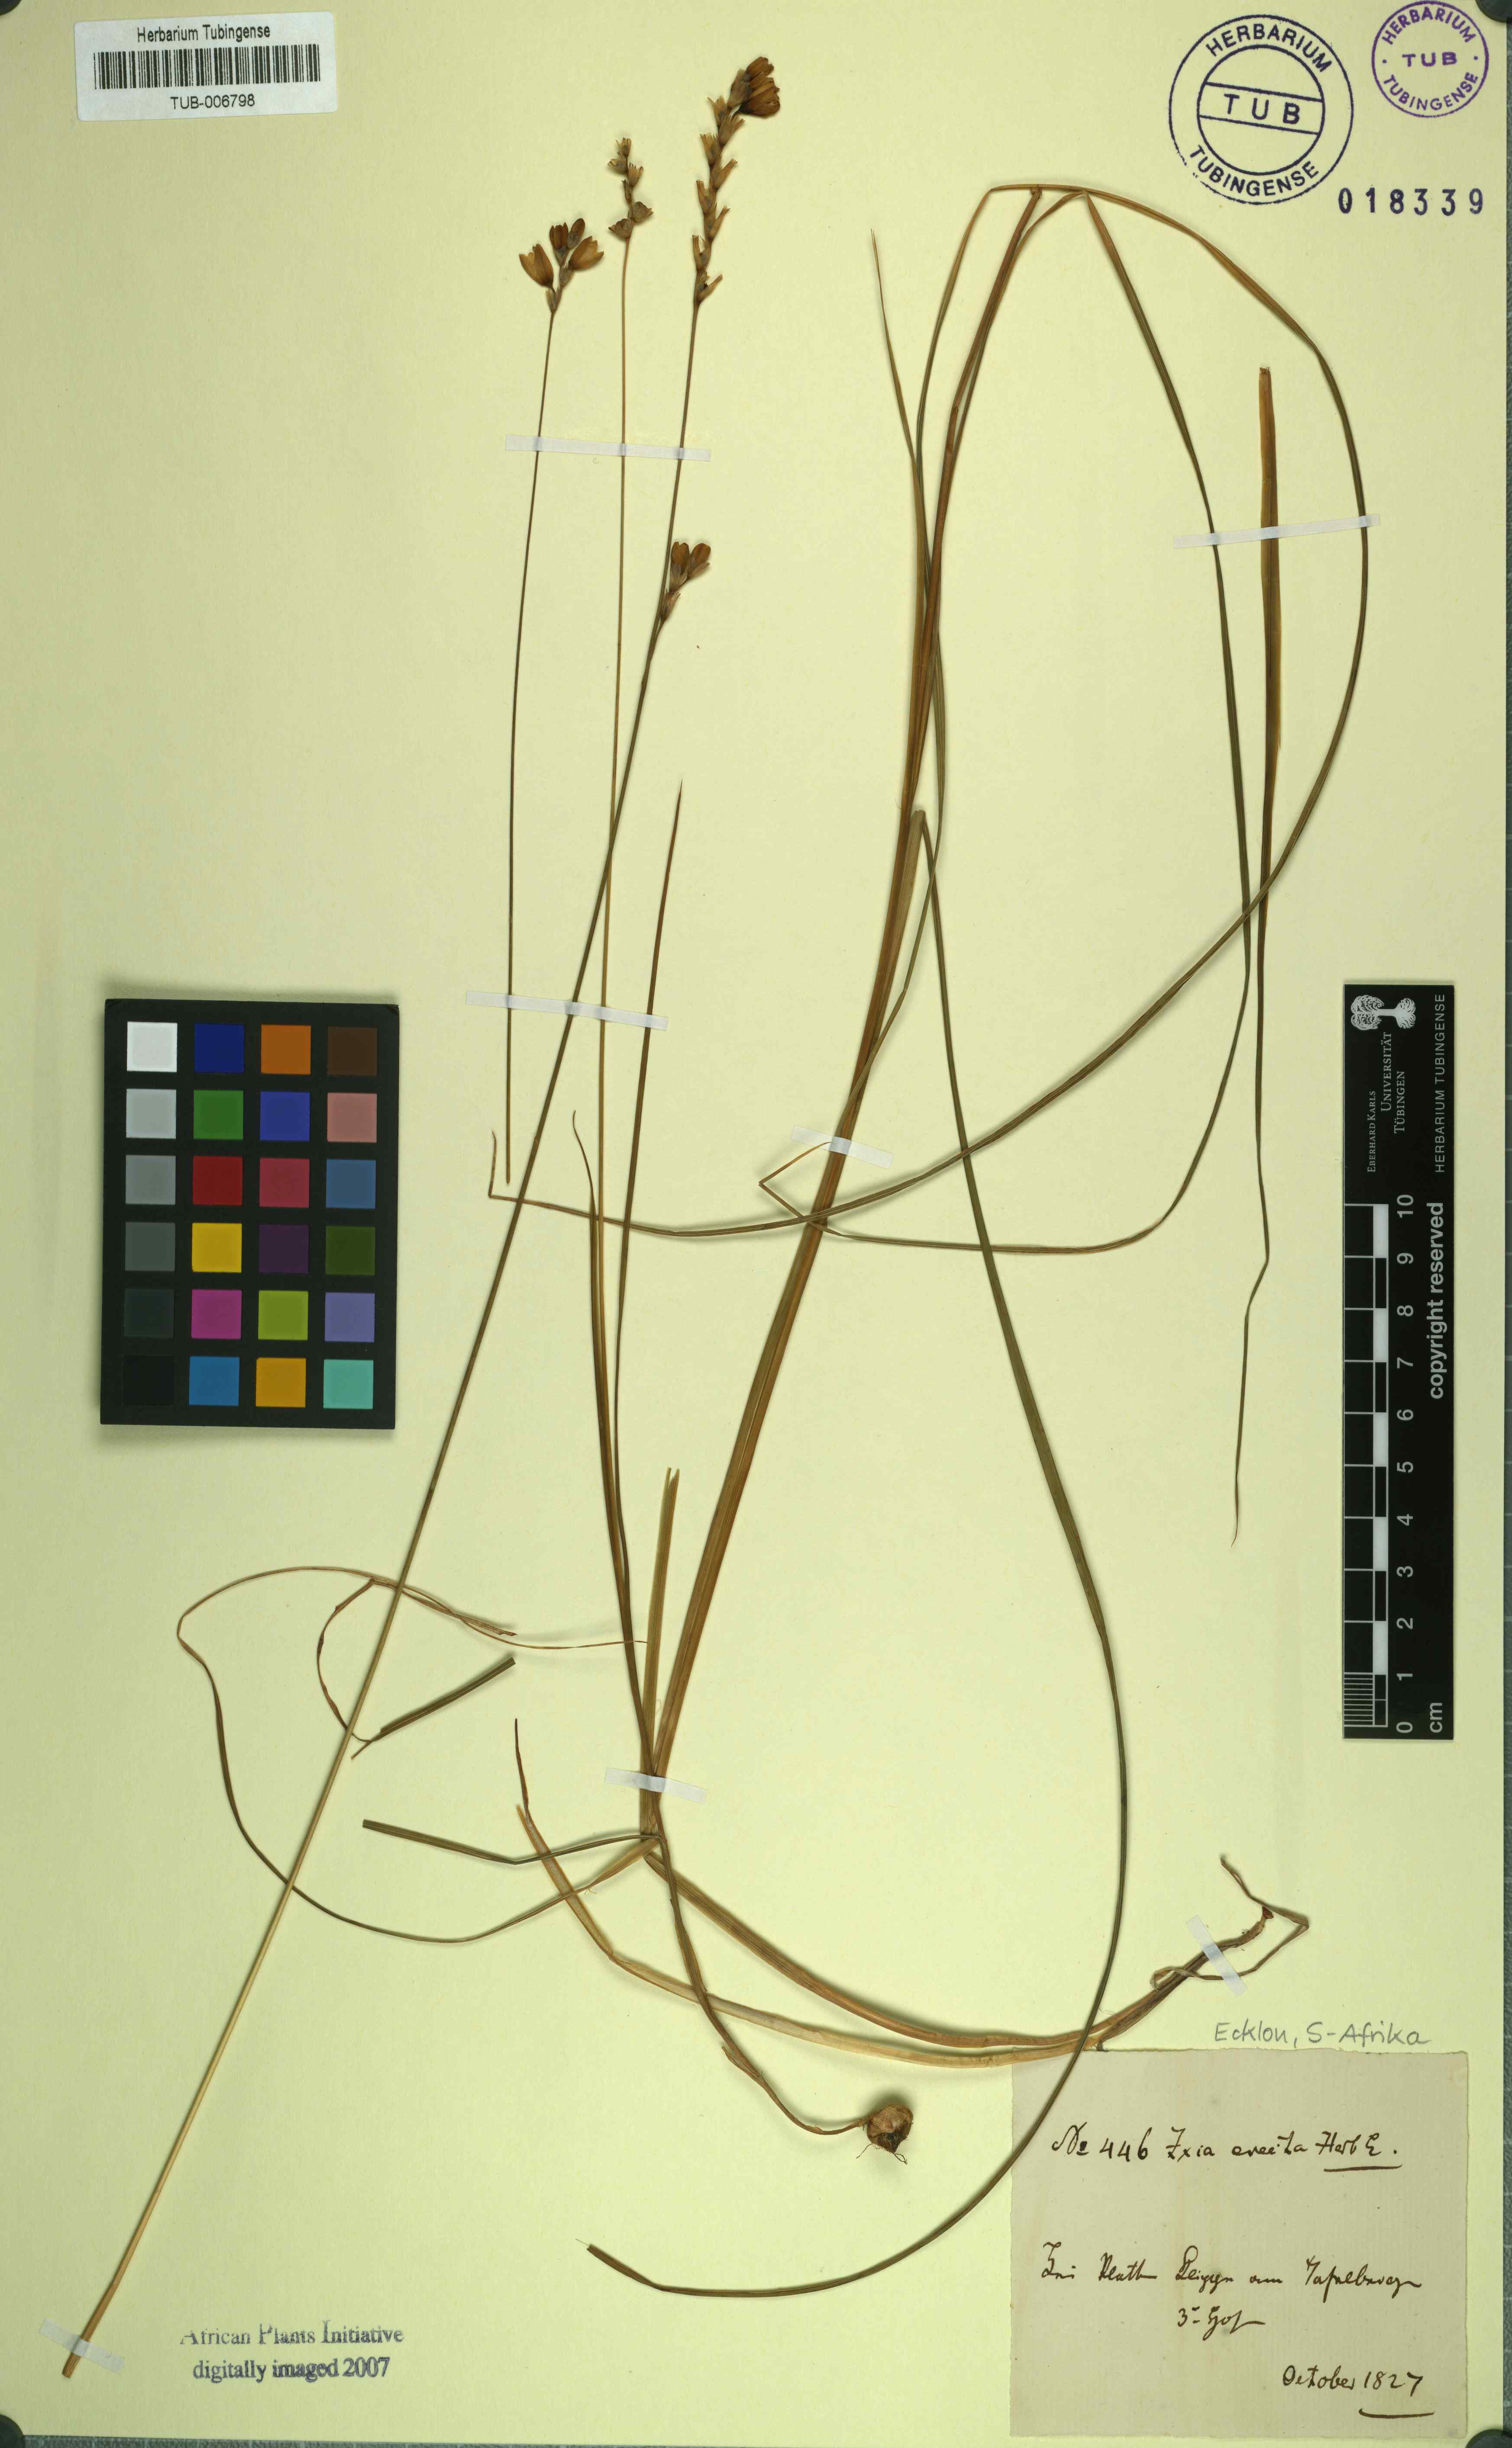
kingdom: Plantae
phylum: Tracheophyta
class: Liliopsida
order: Asparagales
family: Iridaceae
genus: Ixia
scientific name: Ixia
